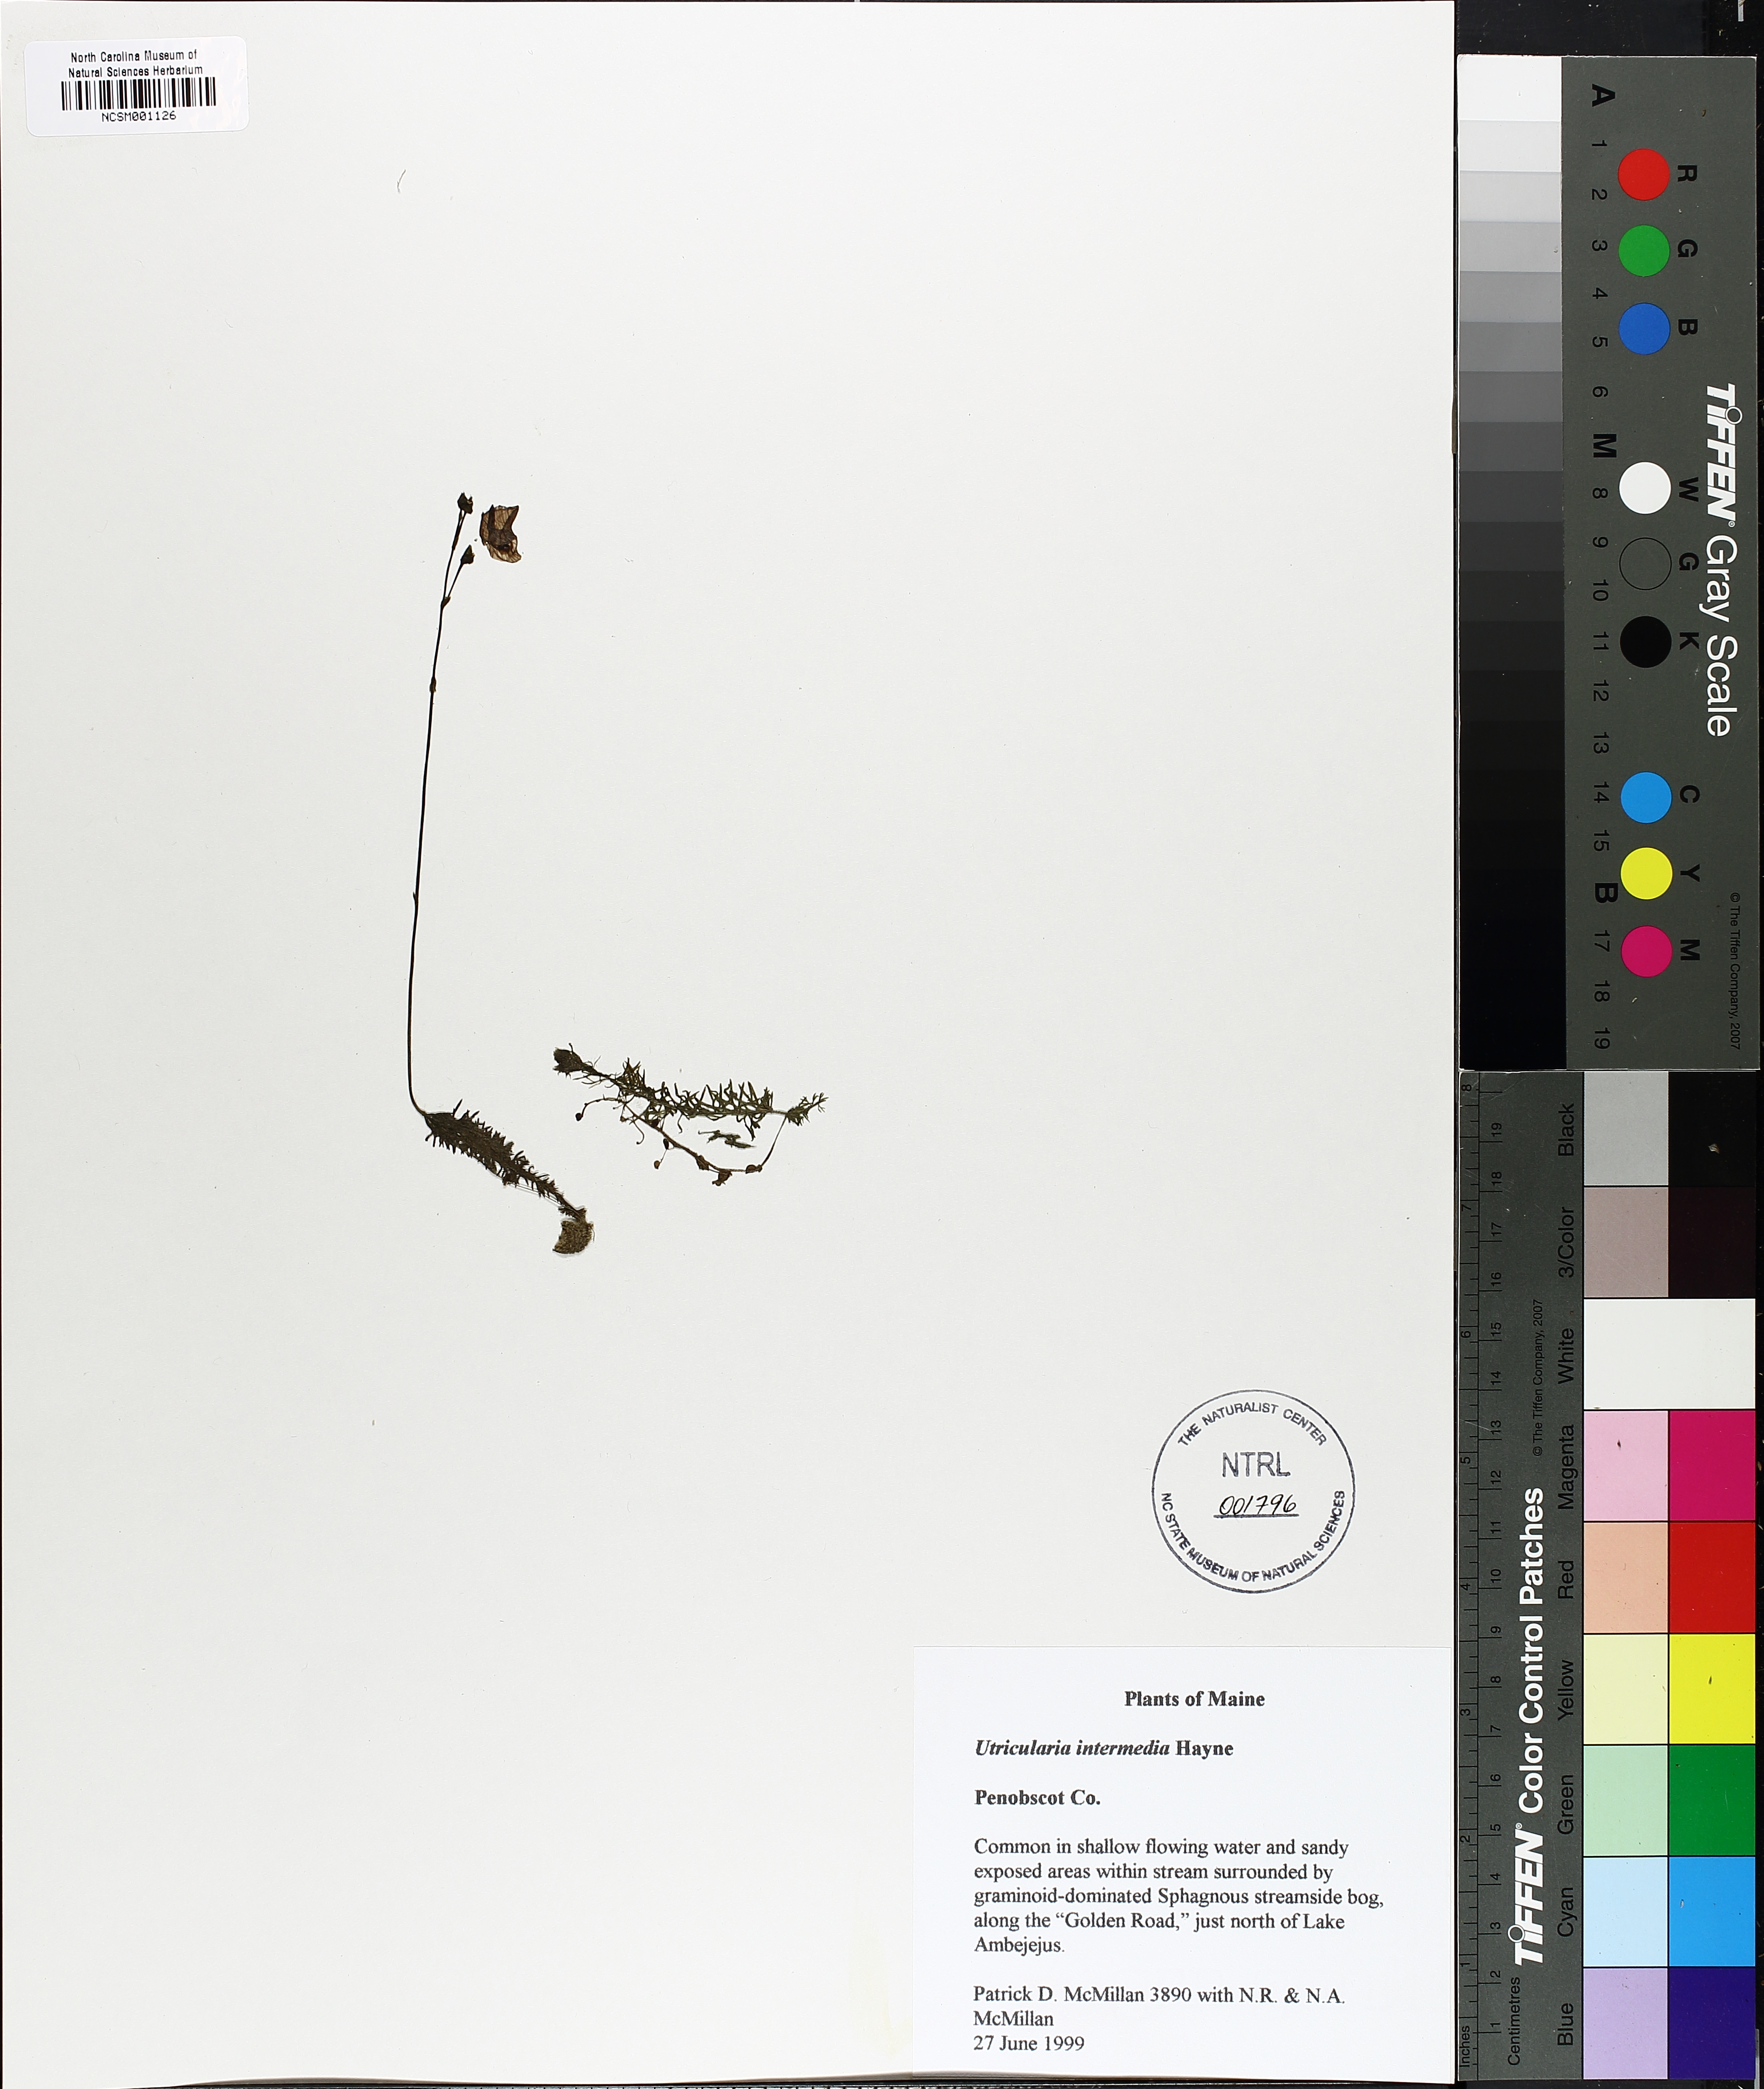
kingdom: Plantae
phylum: Tracheophyta
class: Magnoliopsida
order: Lamiales
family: Lentibulariaceae
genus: Utricularia
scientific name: Utricularia intermedia
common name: Intermediate bladderwort
